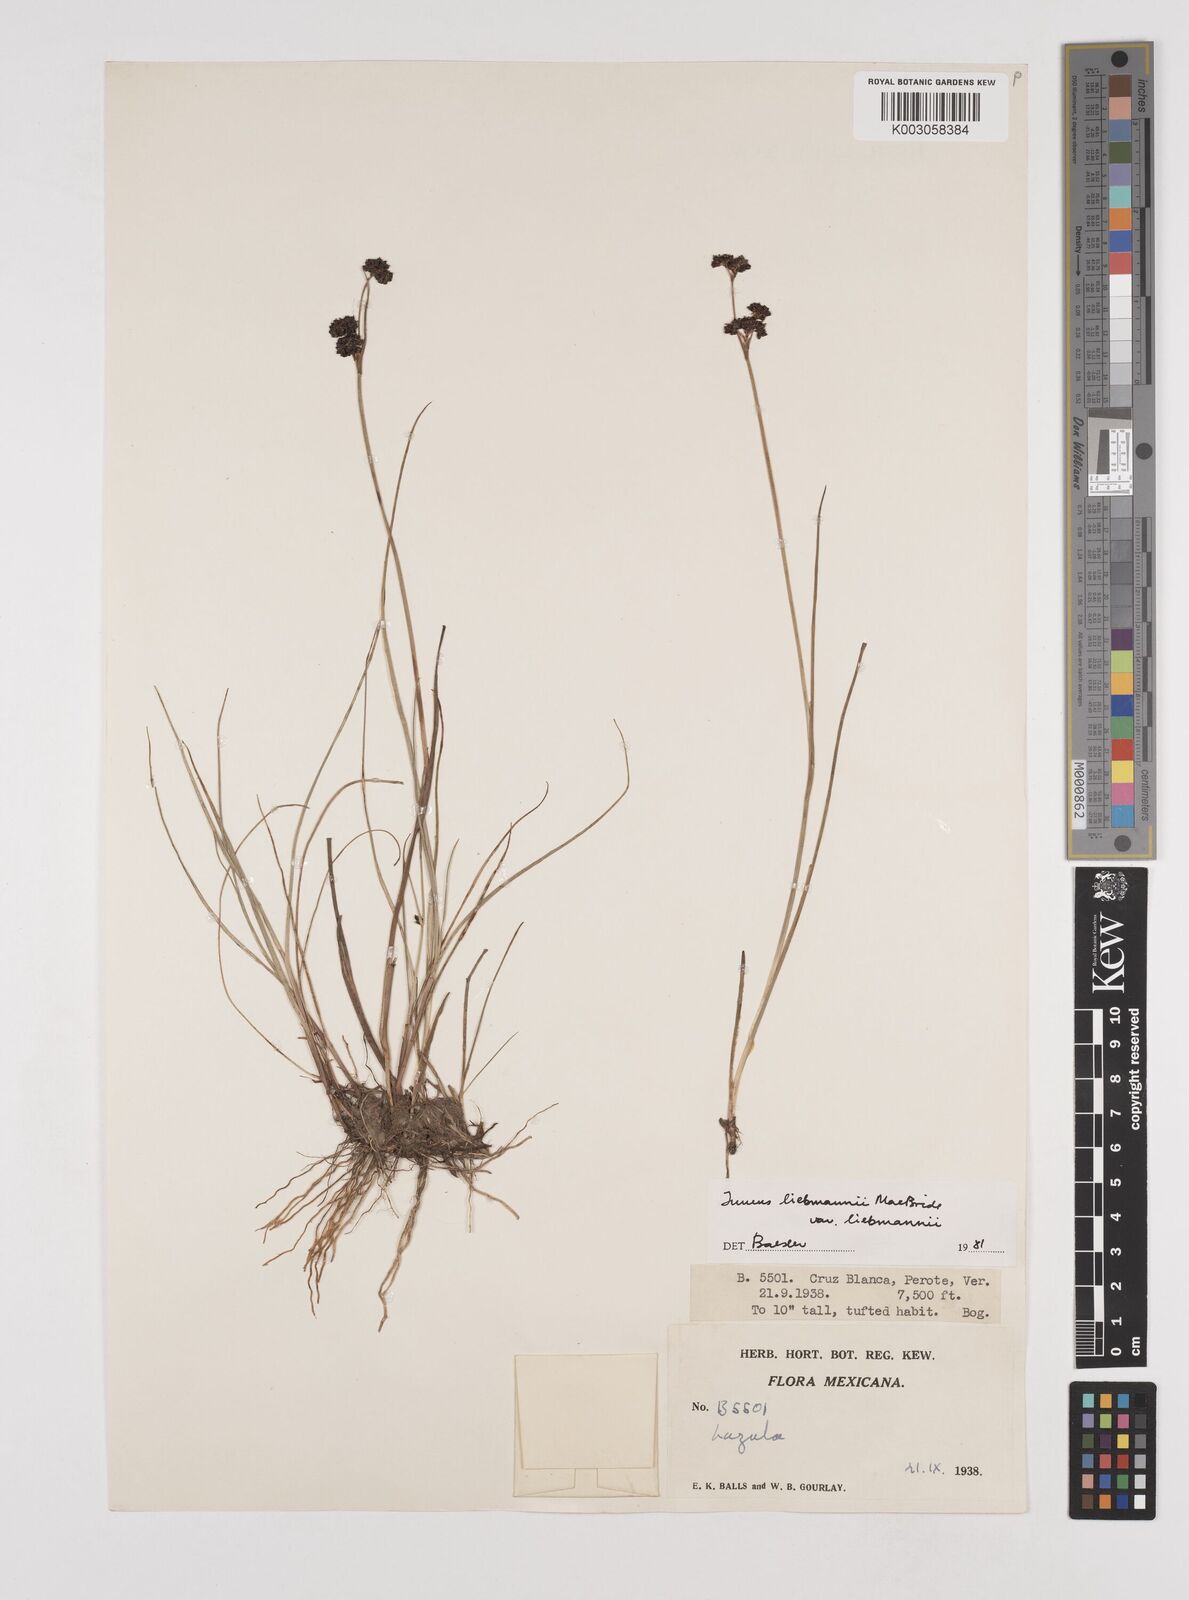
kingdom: Plantae
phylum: Tracheophyta
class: Liliopsida
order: Poales
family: Juncaceae
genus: Juncus
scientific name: Juncus liebmannii
